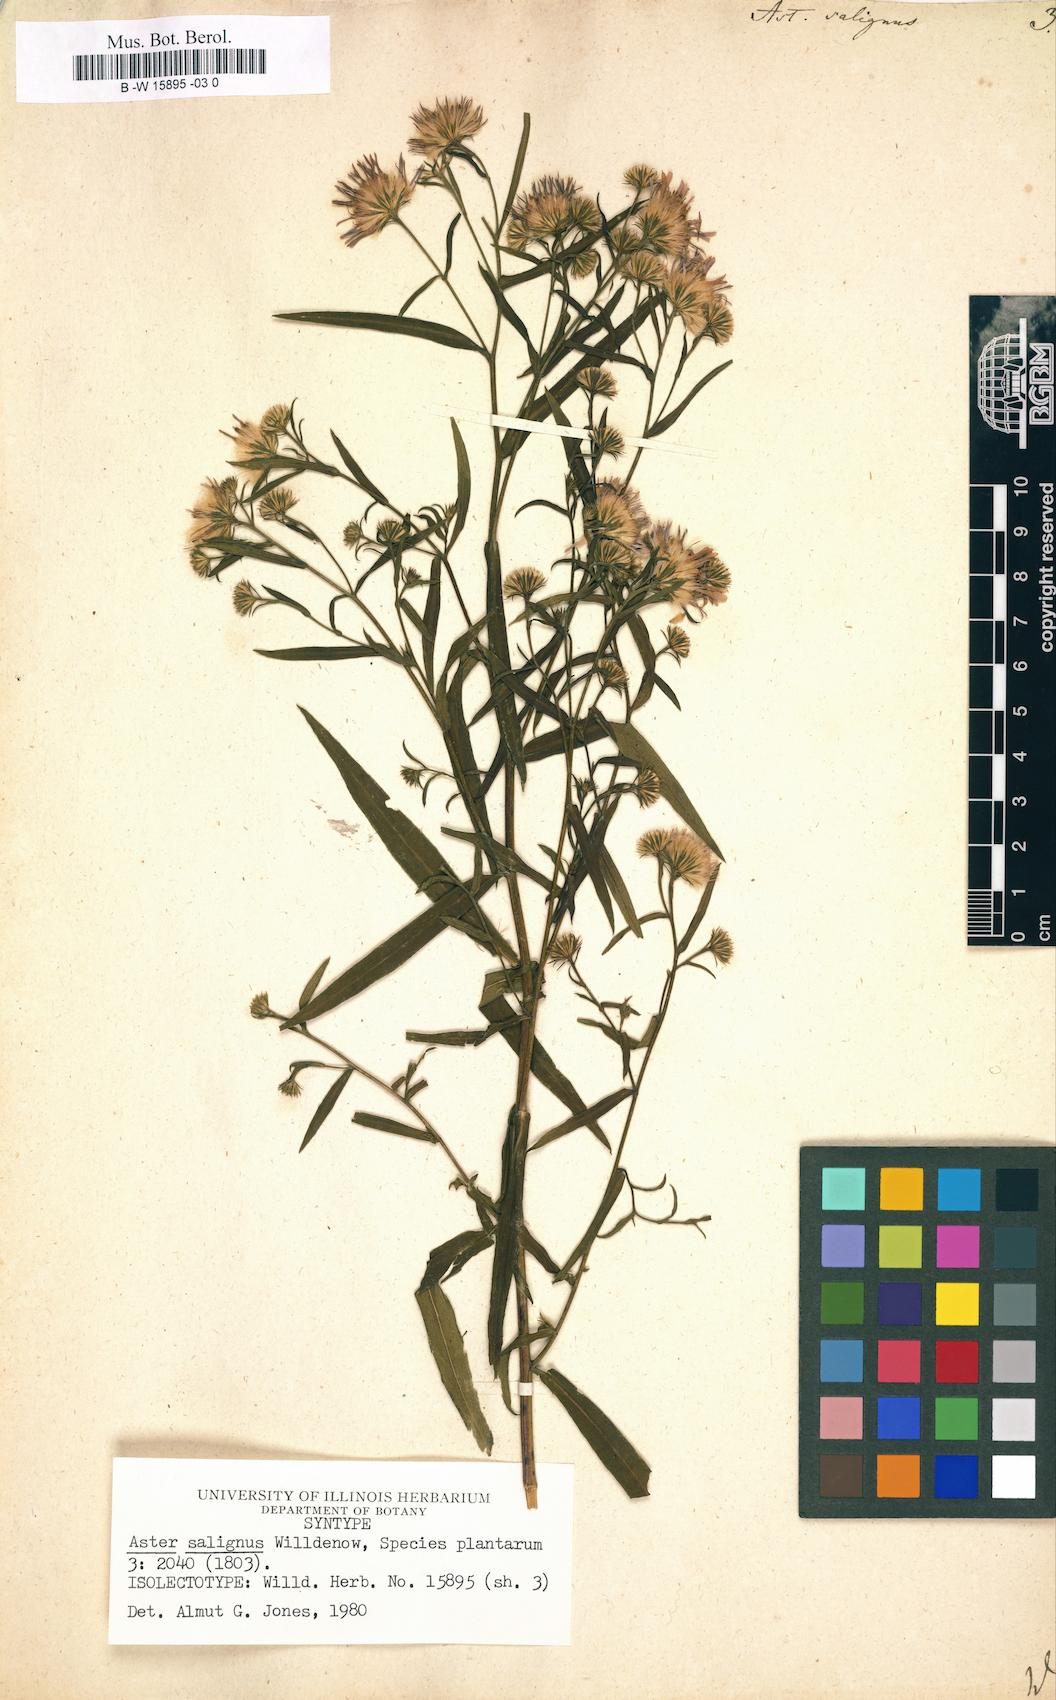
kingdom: Plantae
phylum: Tracheophyta
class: Magnoliopsida
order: Asterales
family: Asteraceae
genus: Symphyotrichum
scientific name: Symphyotrichum salignum
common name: Common michaelmas daisy
